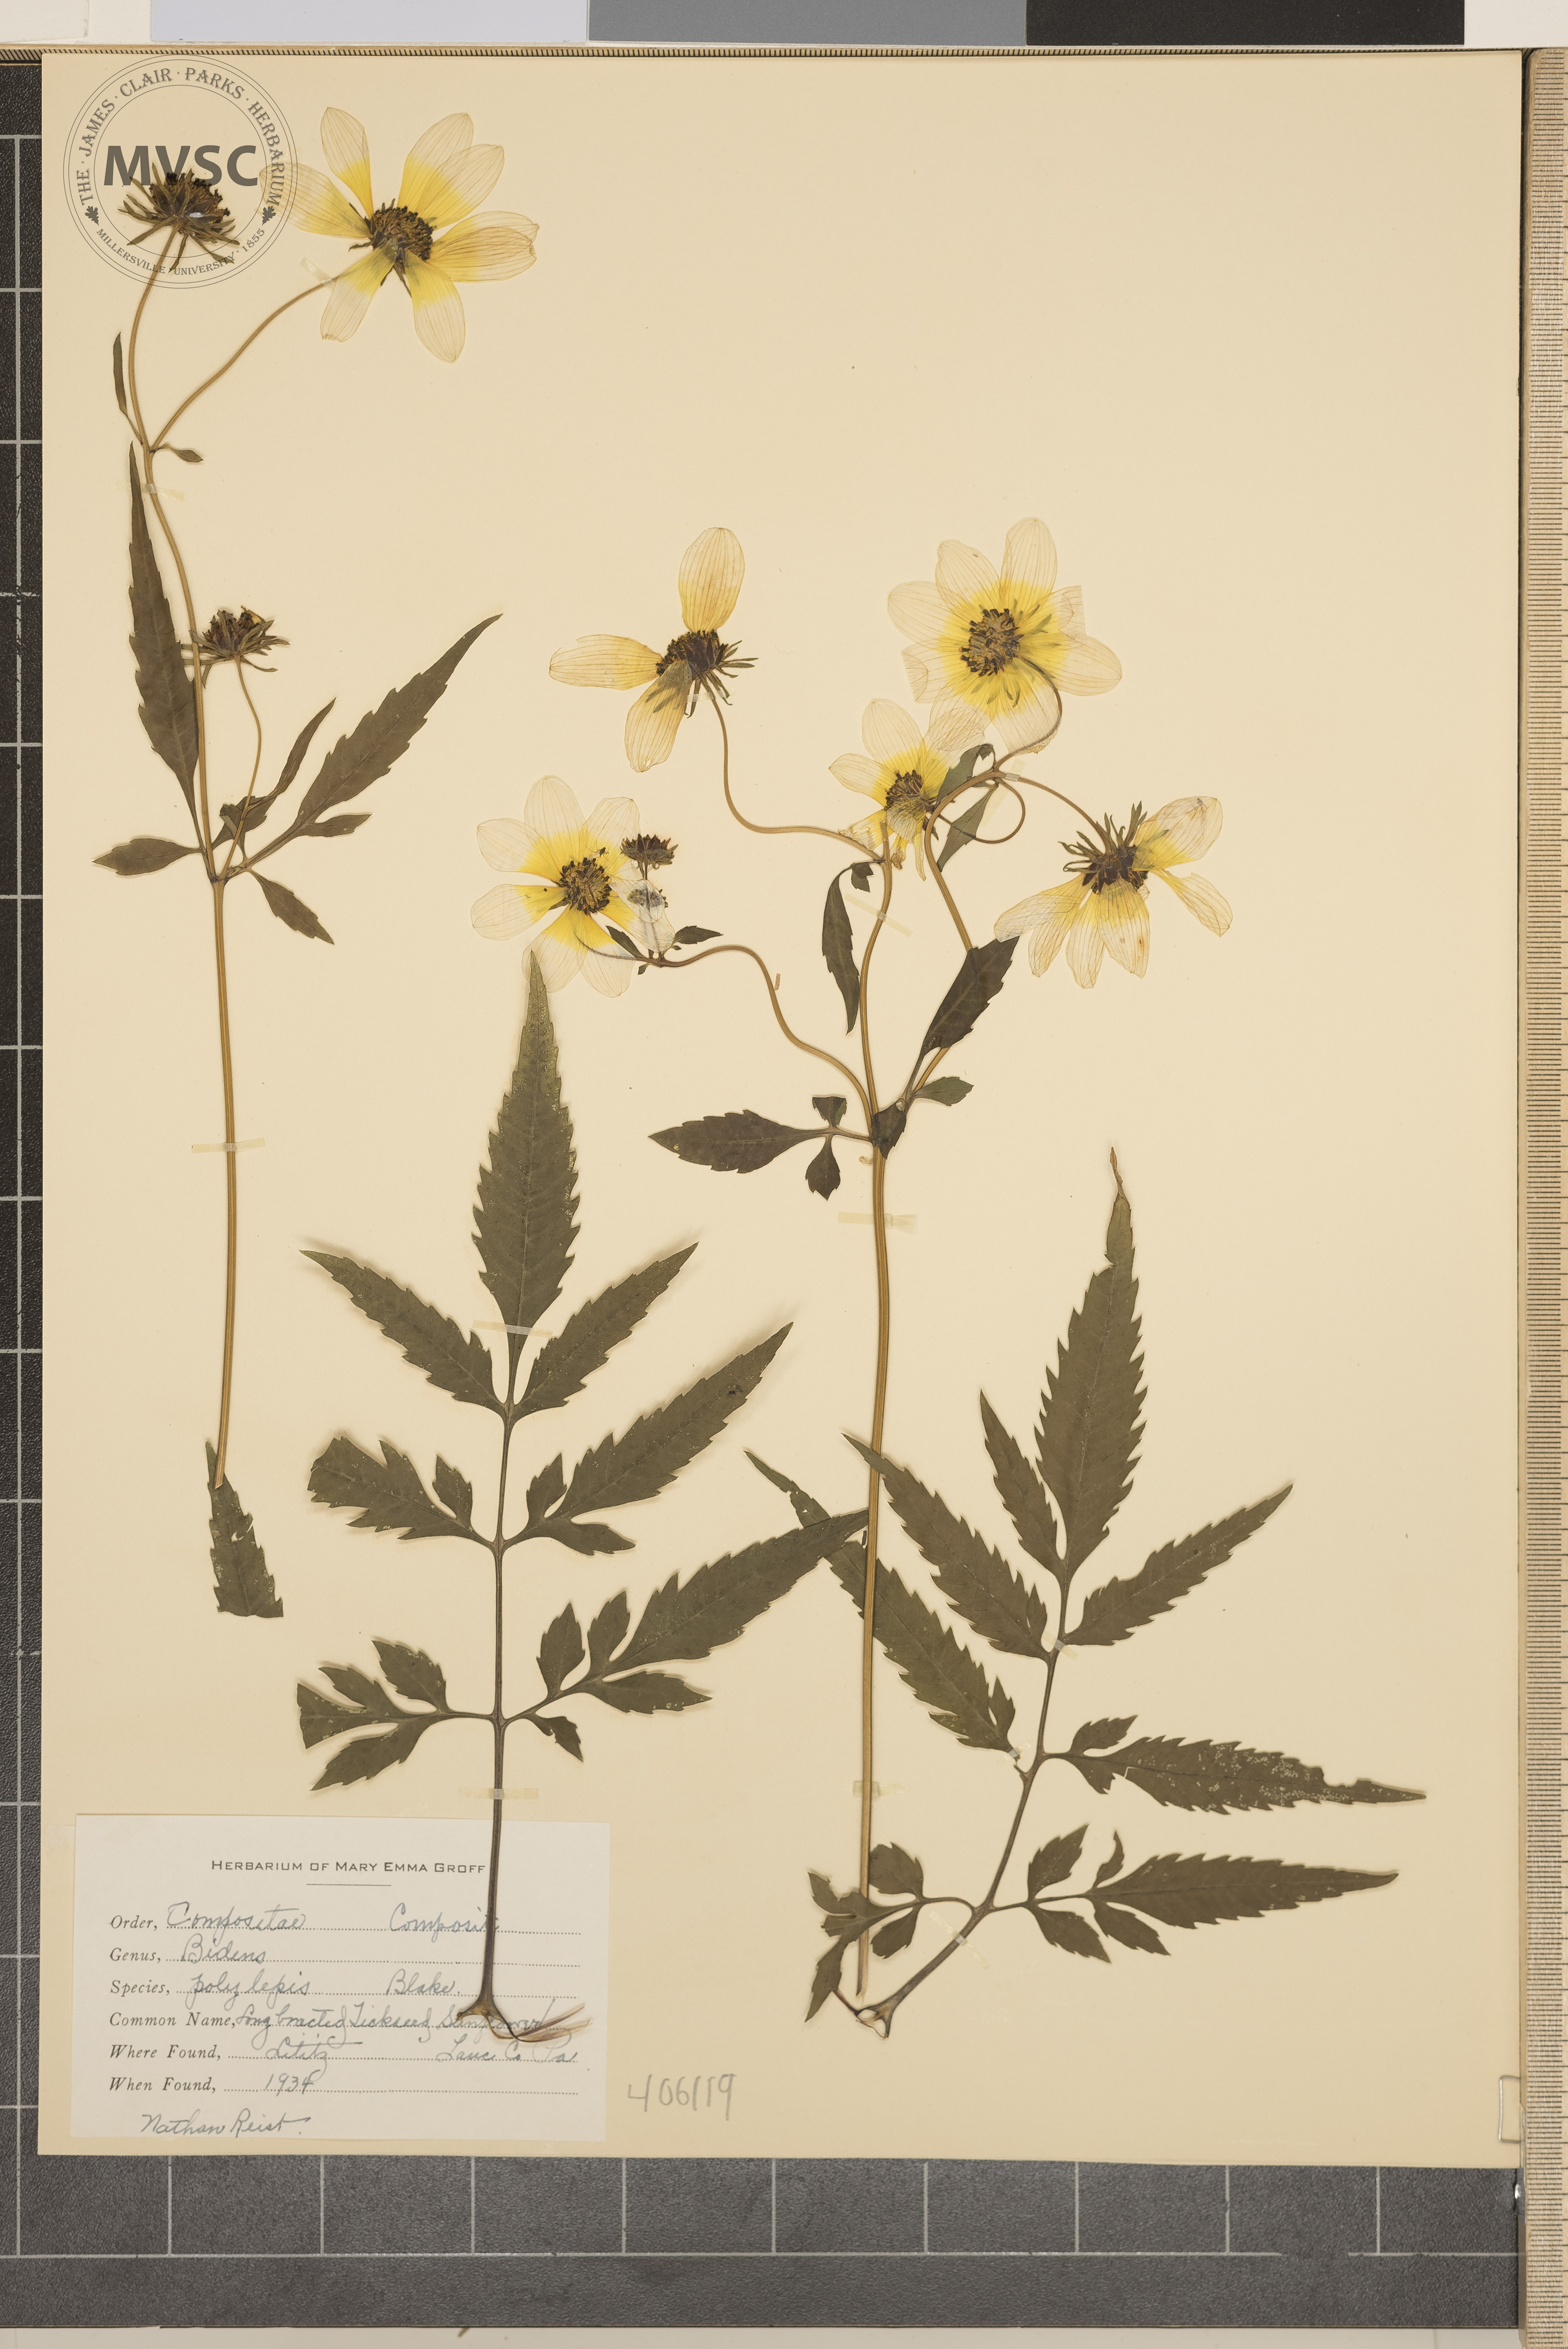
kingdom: Plantae
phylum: Tracheophyta
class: Magnoliopsida
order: Asterales
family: Asteraceae
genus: Bidens
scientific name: Bidens polylepis
